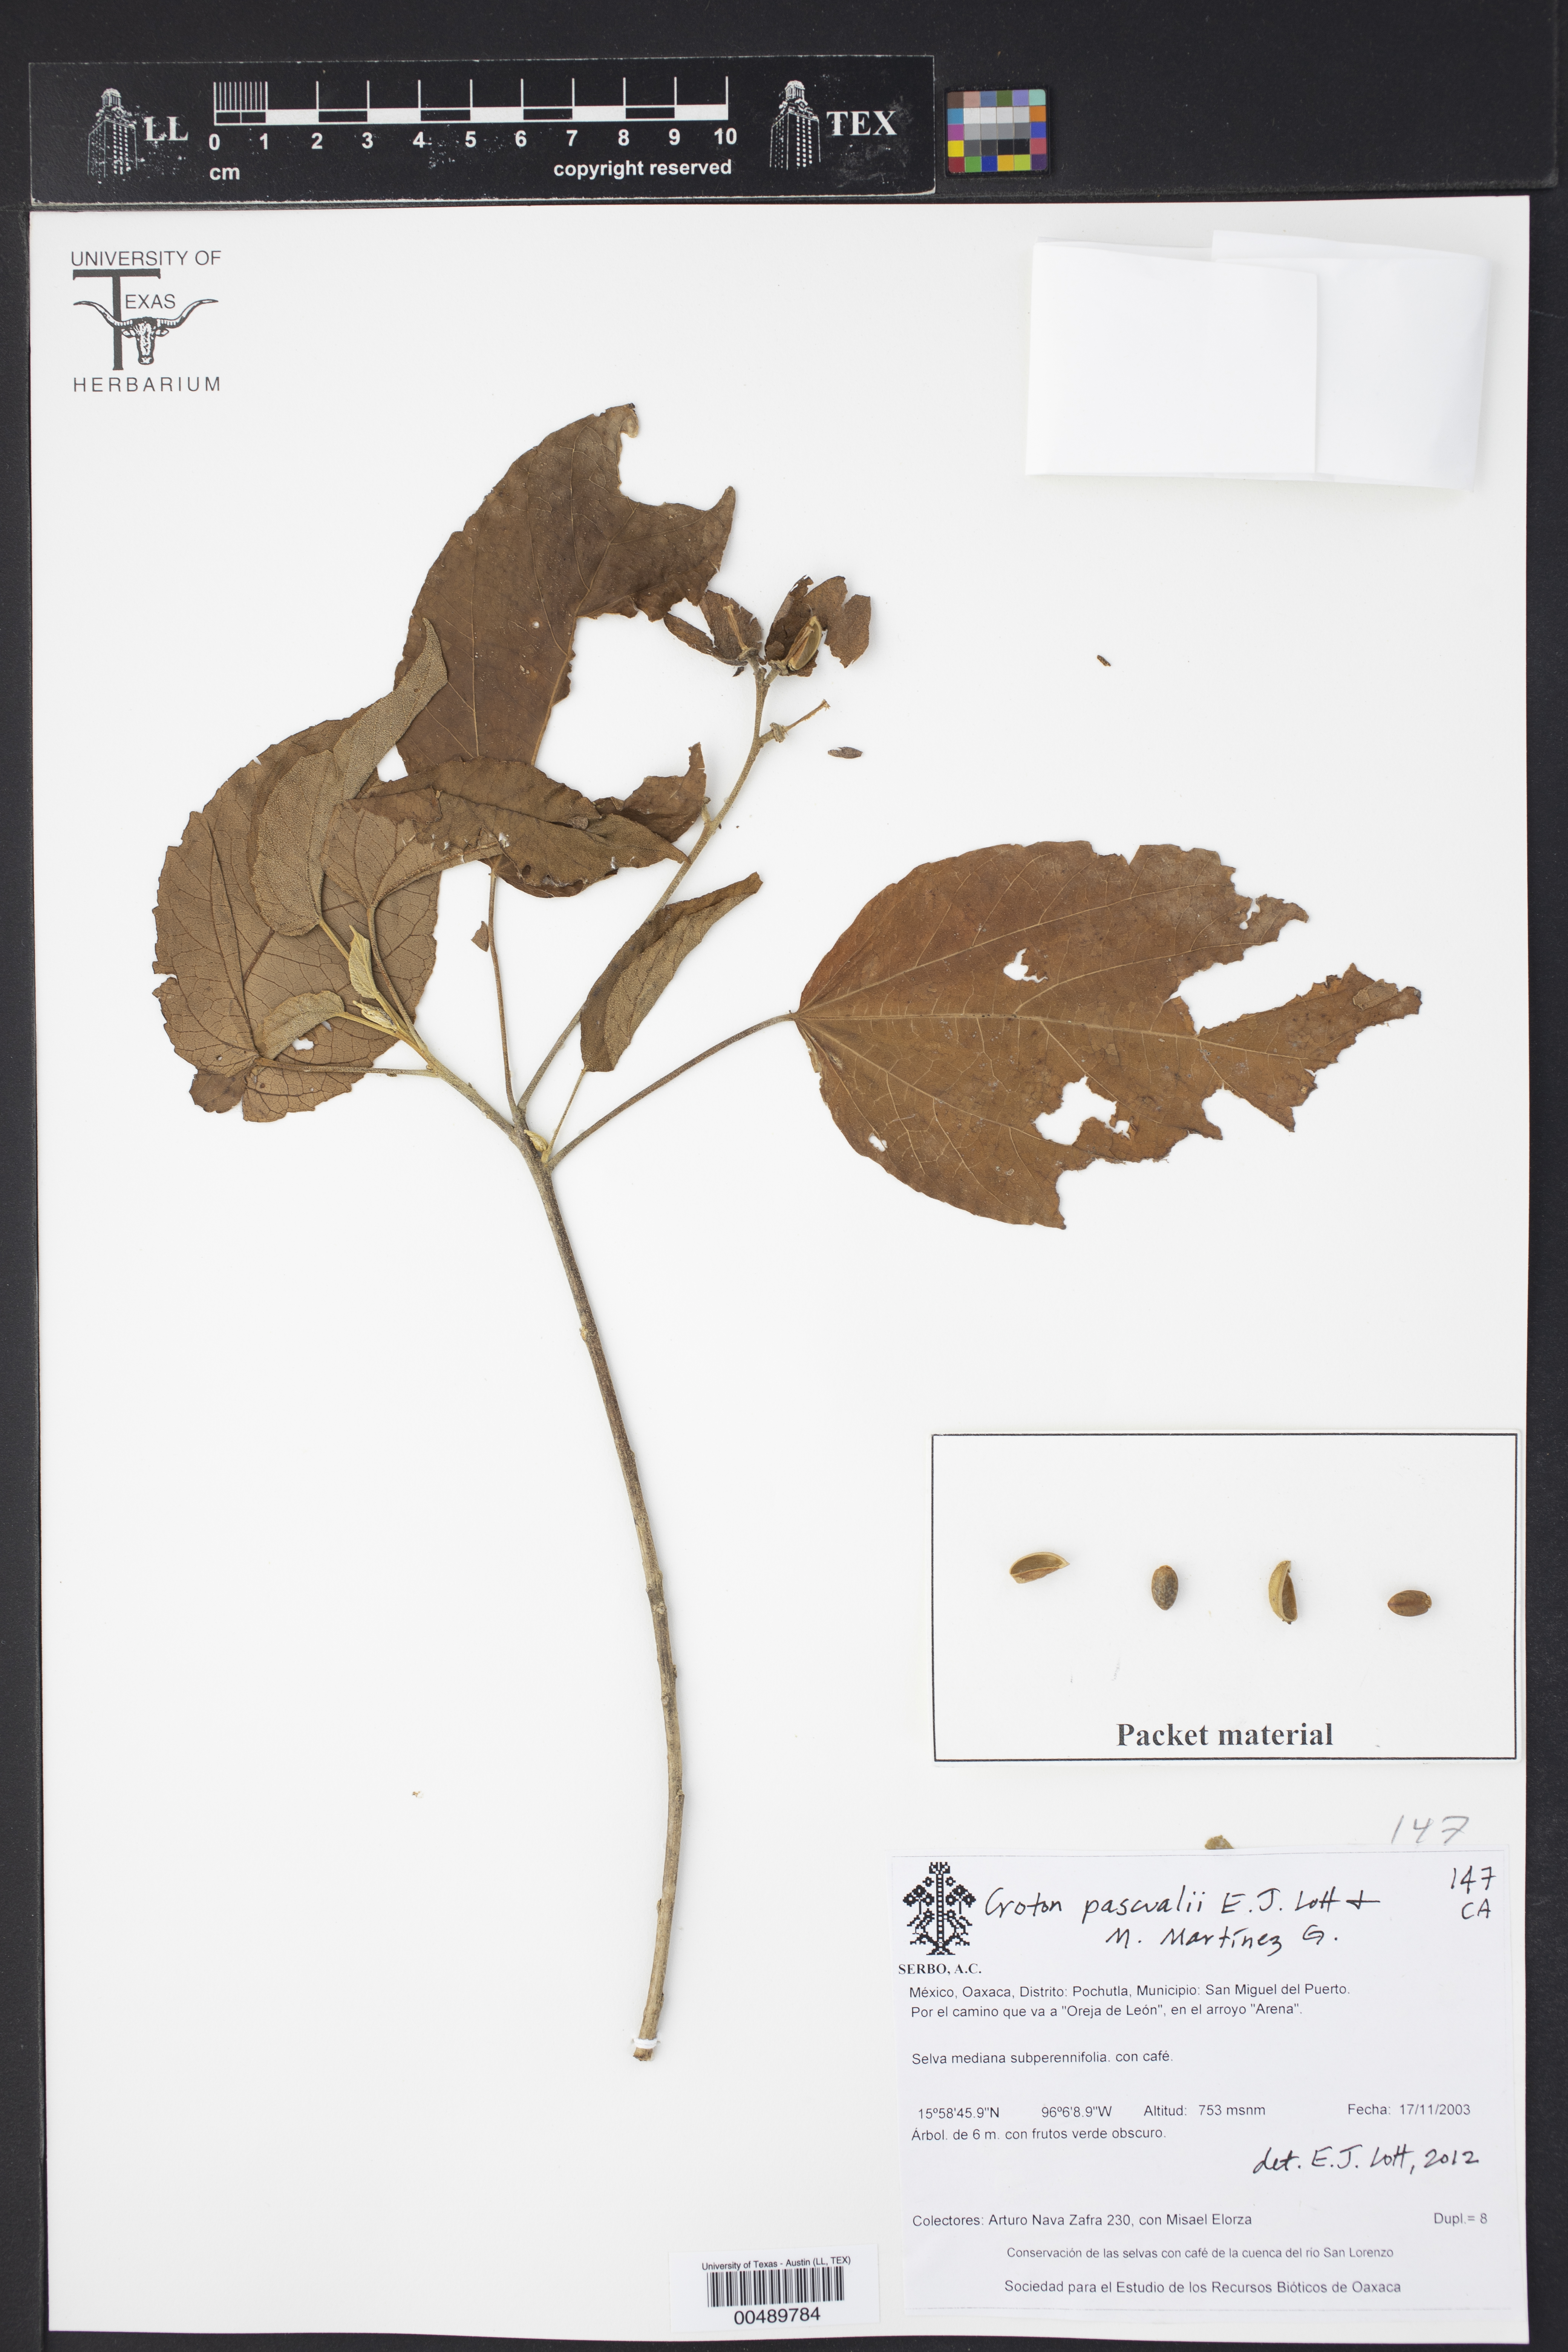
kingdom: Plantae
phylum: Tracheophyta
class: Magnoliopsida
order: Malpighiales
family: Euphorbiaceae
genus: Croton
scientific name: Croton pascualii
